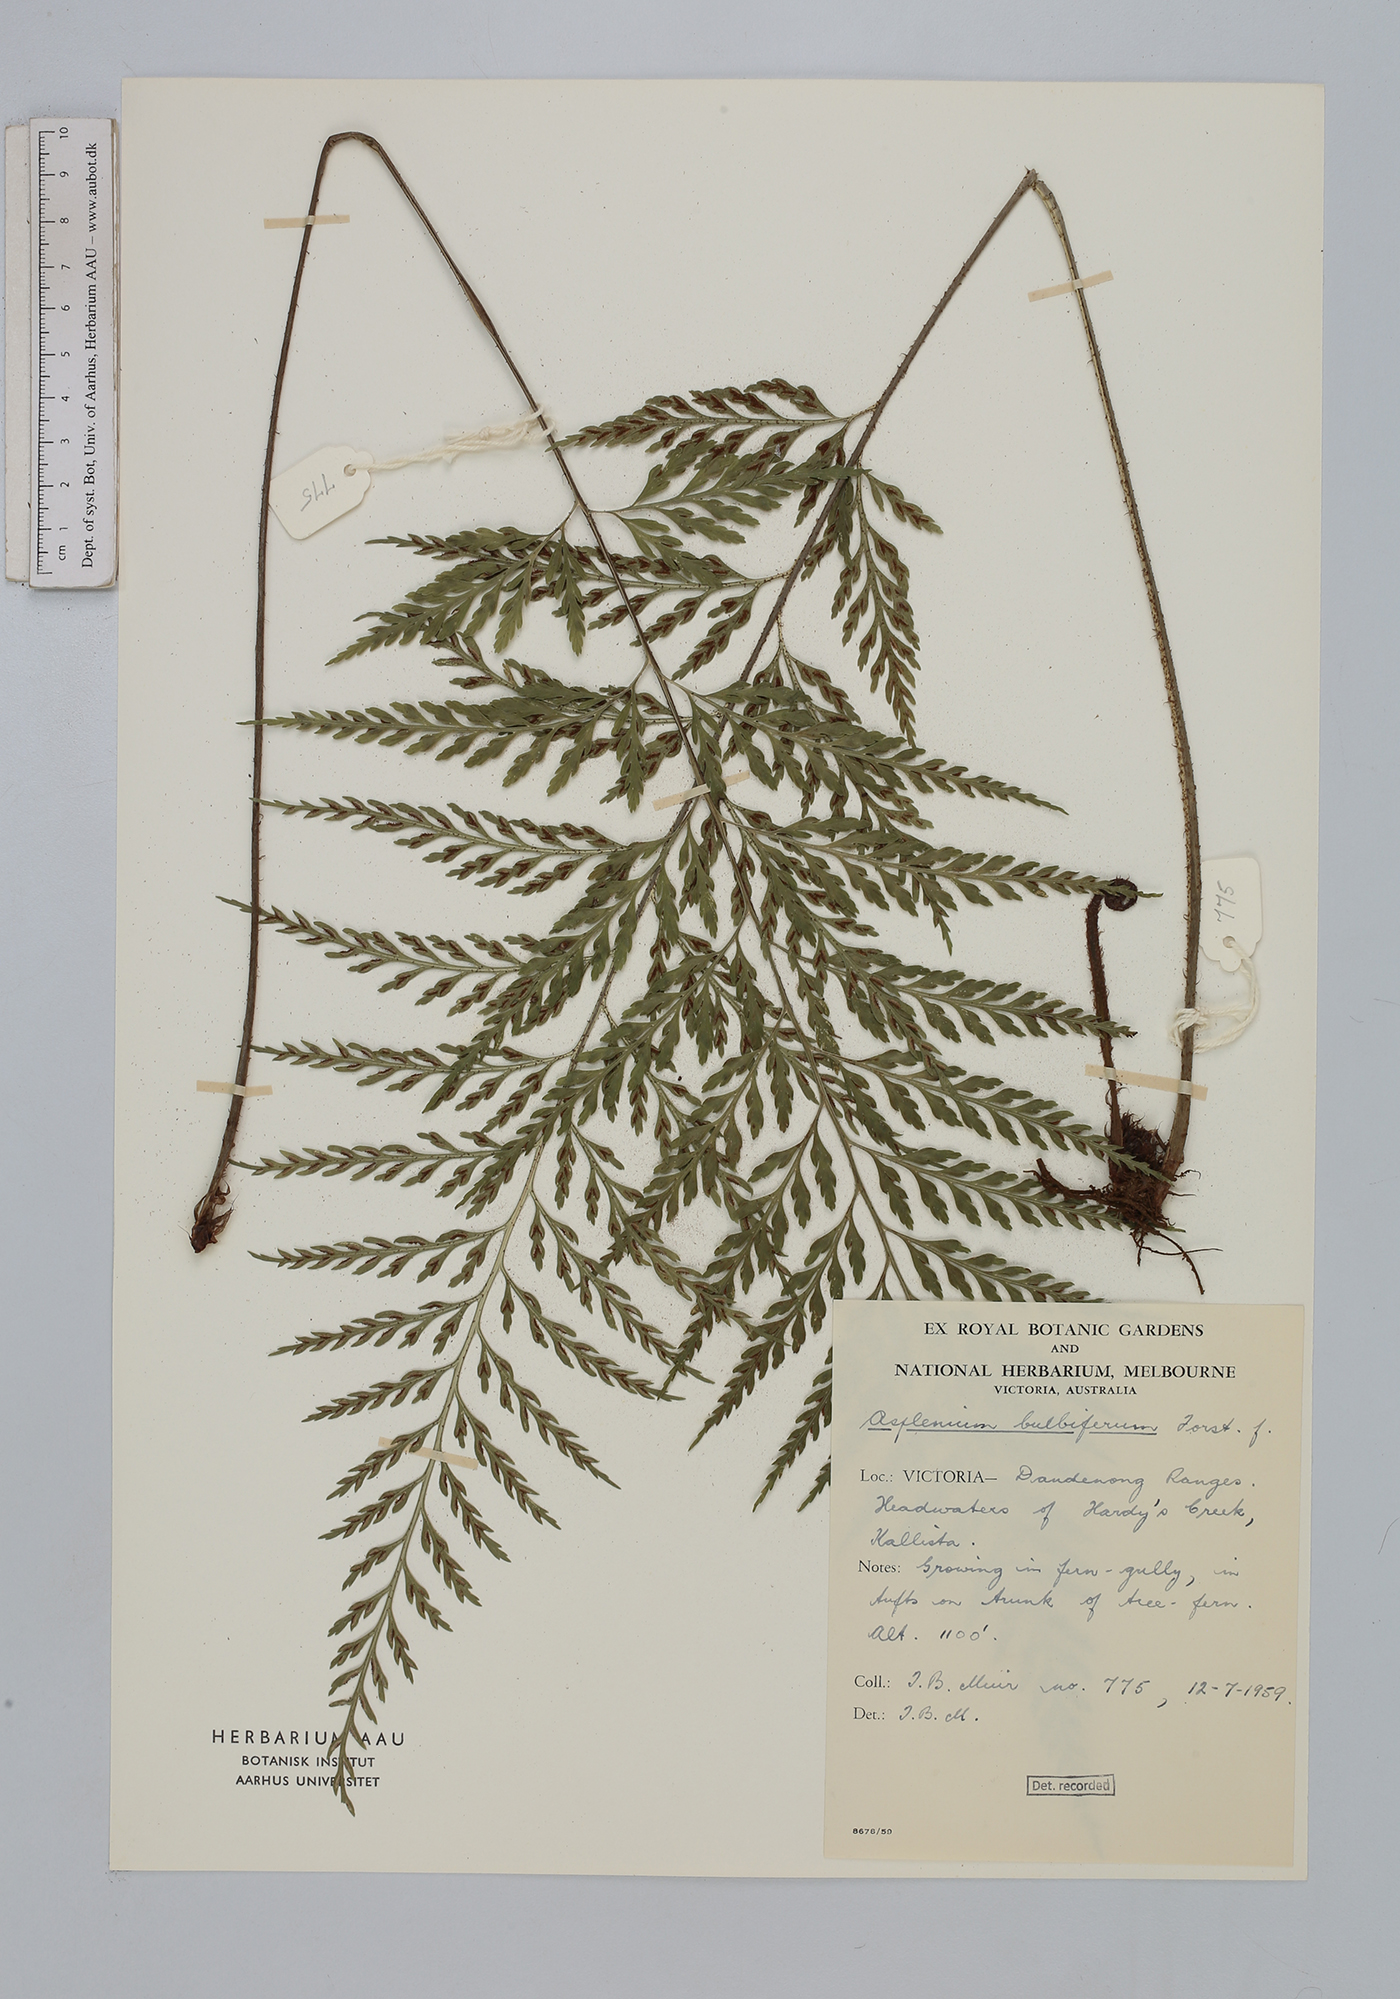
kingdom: Plantae
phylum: Tracheophyta
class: Polypodiopsida
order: Polypodiales
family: Aspleniaceae
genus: Asplenium
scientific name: Asplenium bulbiferum
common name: Mother fern
